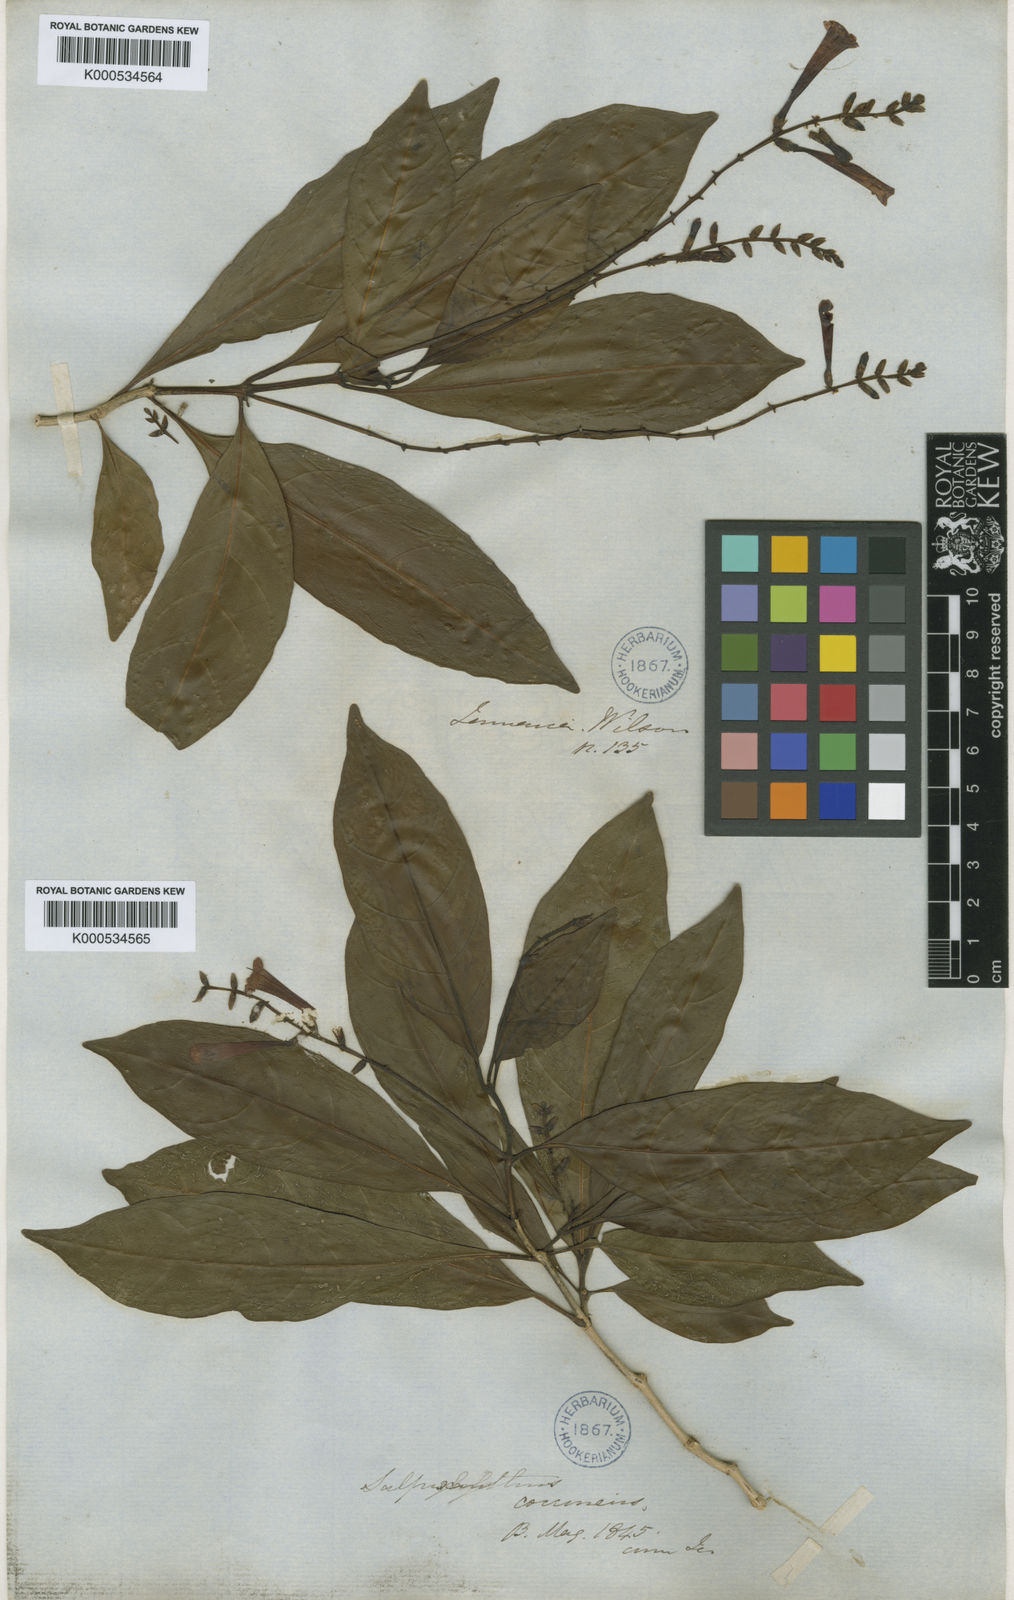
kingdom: Plantae
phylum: Tracheophyta
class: Magnoliopsida
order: Lamiales
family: Acanthaceae
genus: Salpixantha
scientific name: Salpixantha coccinea
